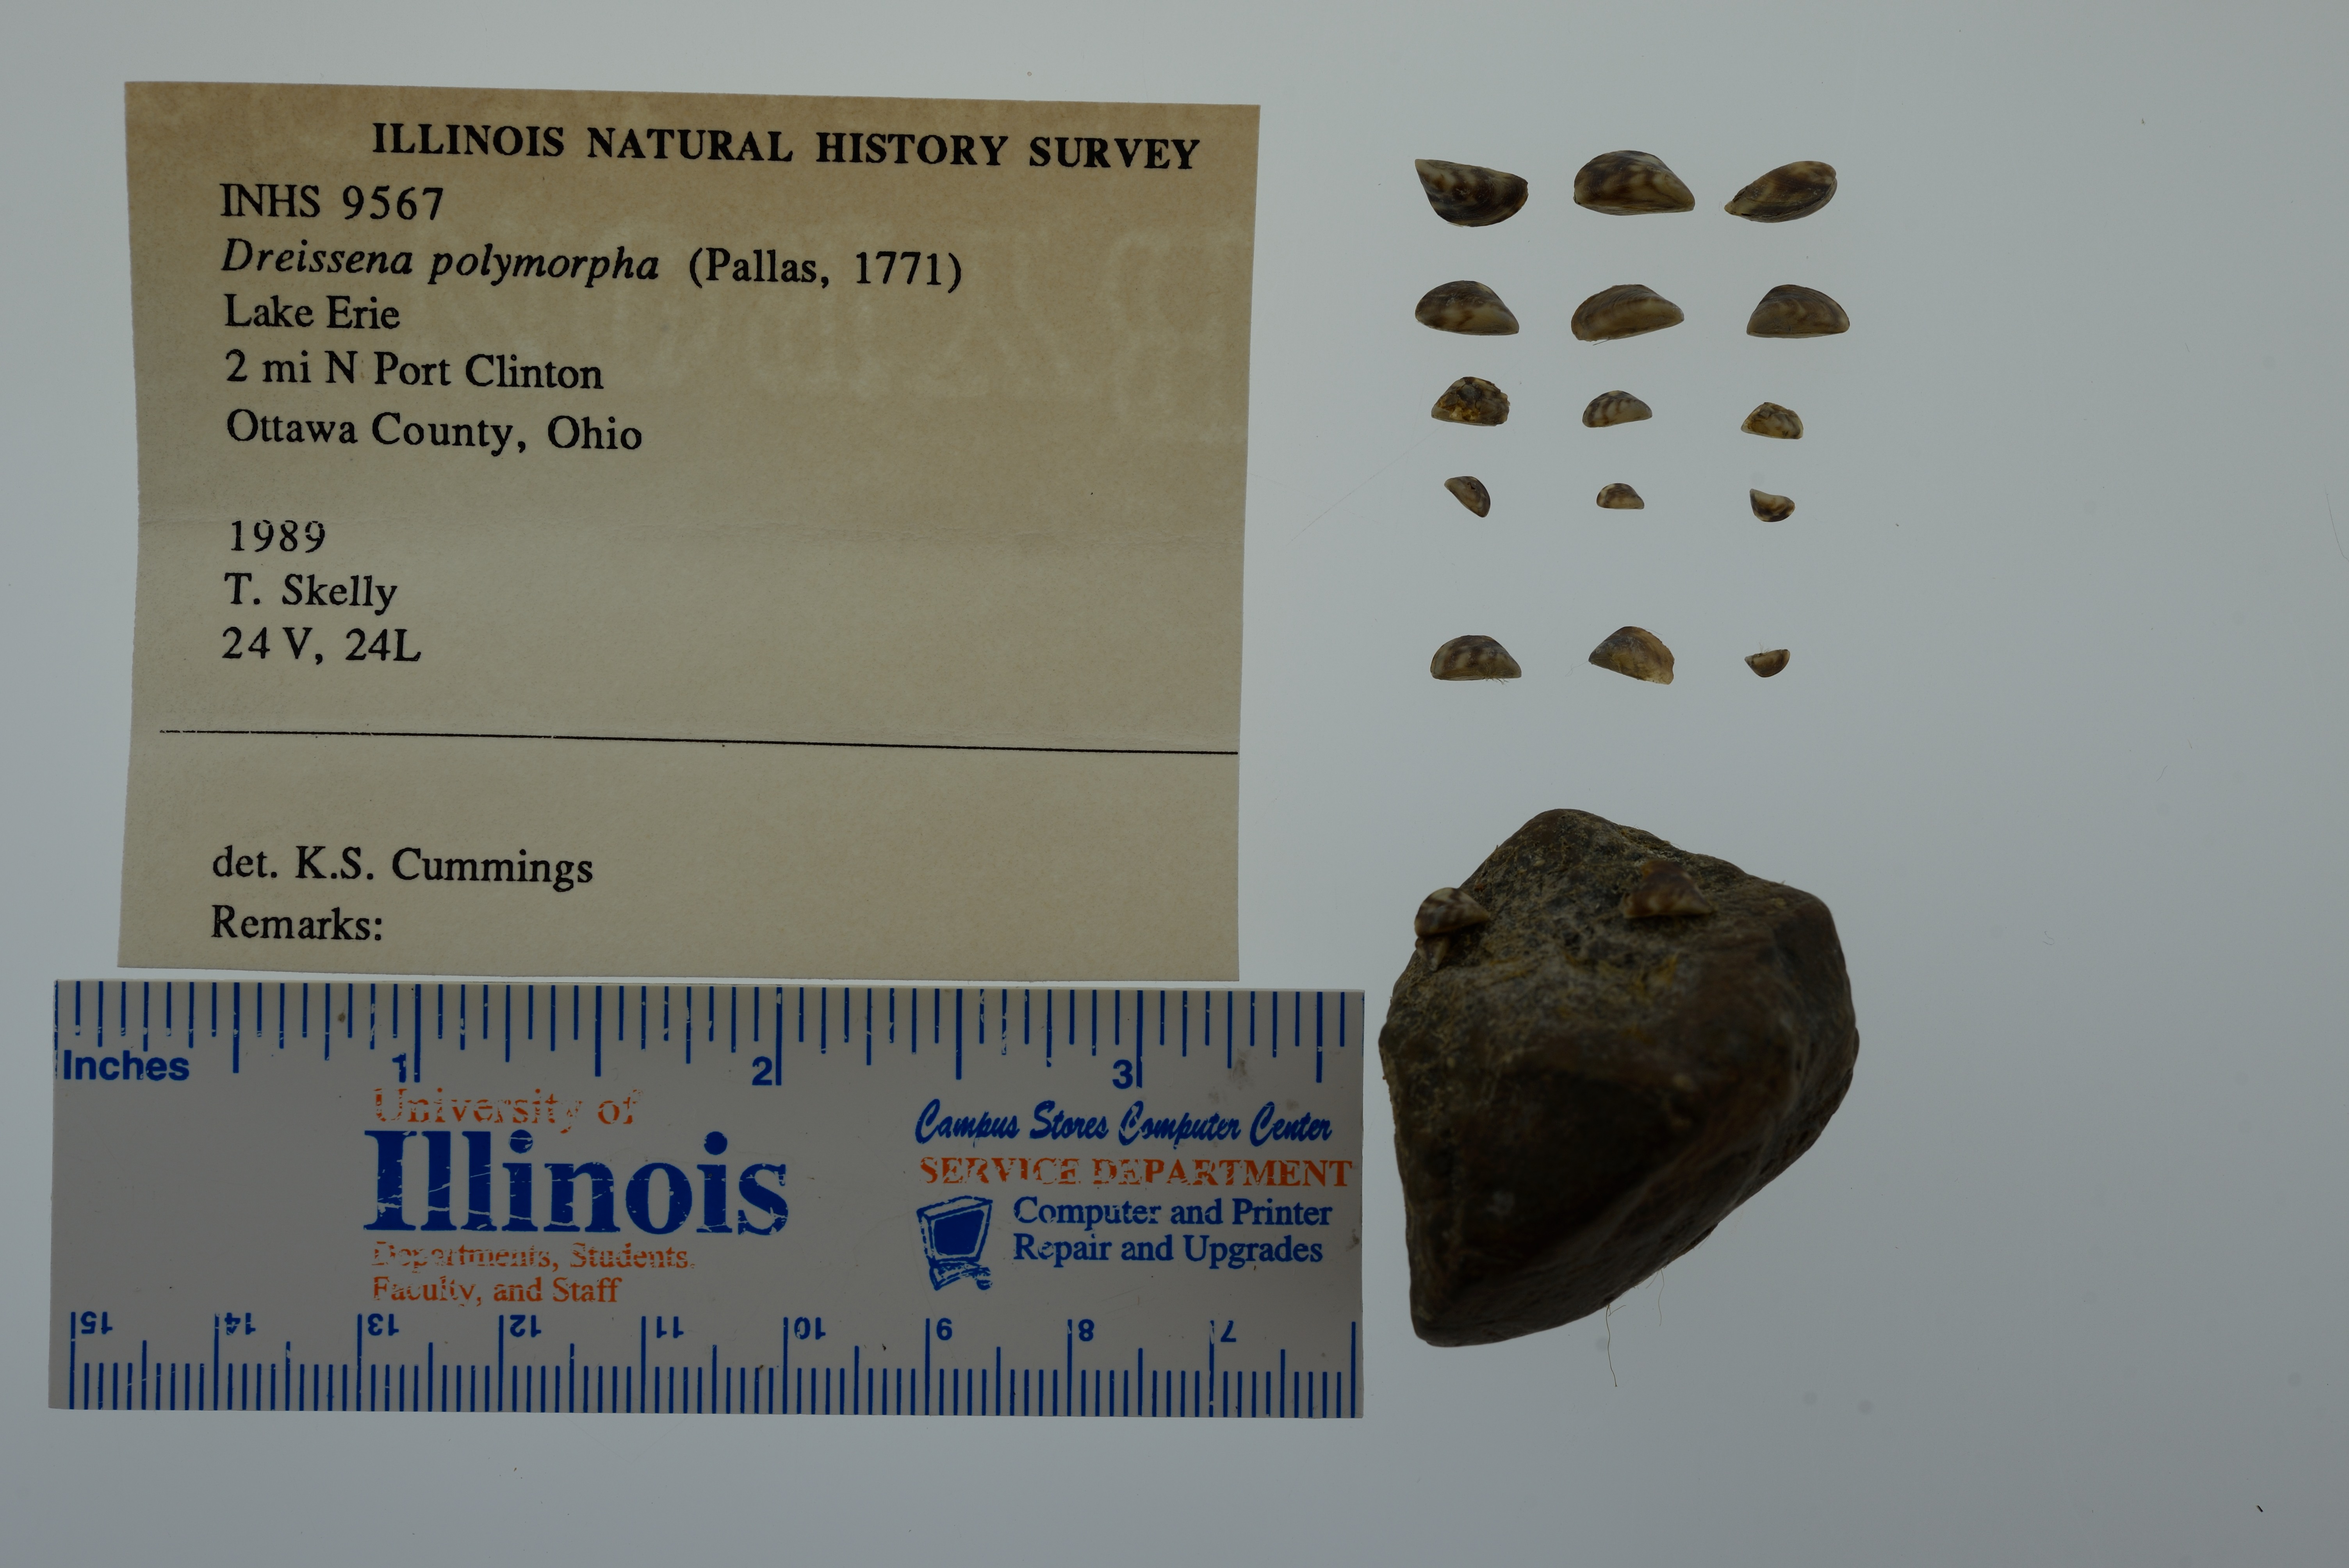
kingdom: Animalia
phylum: Mollusca
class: Bivalvia
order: Myida
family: Dreissenidae
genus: Dreissena
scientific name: Dreissena polymorpha
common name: Zebra mussel
